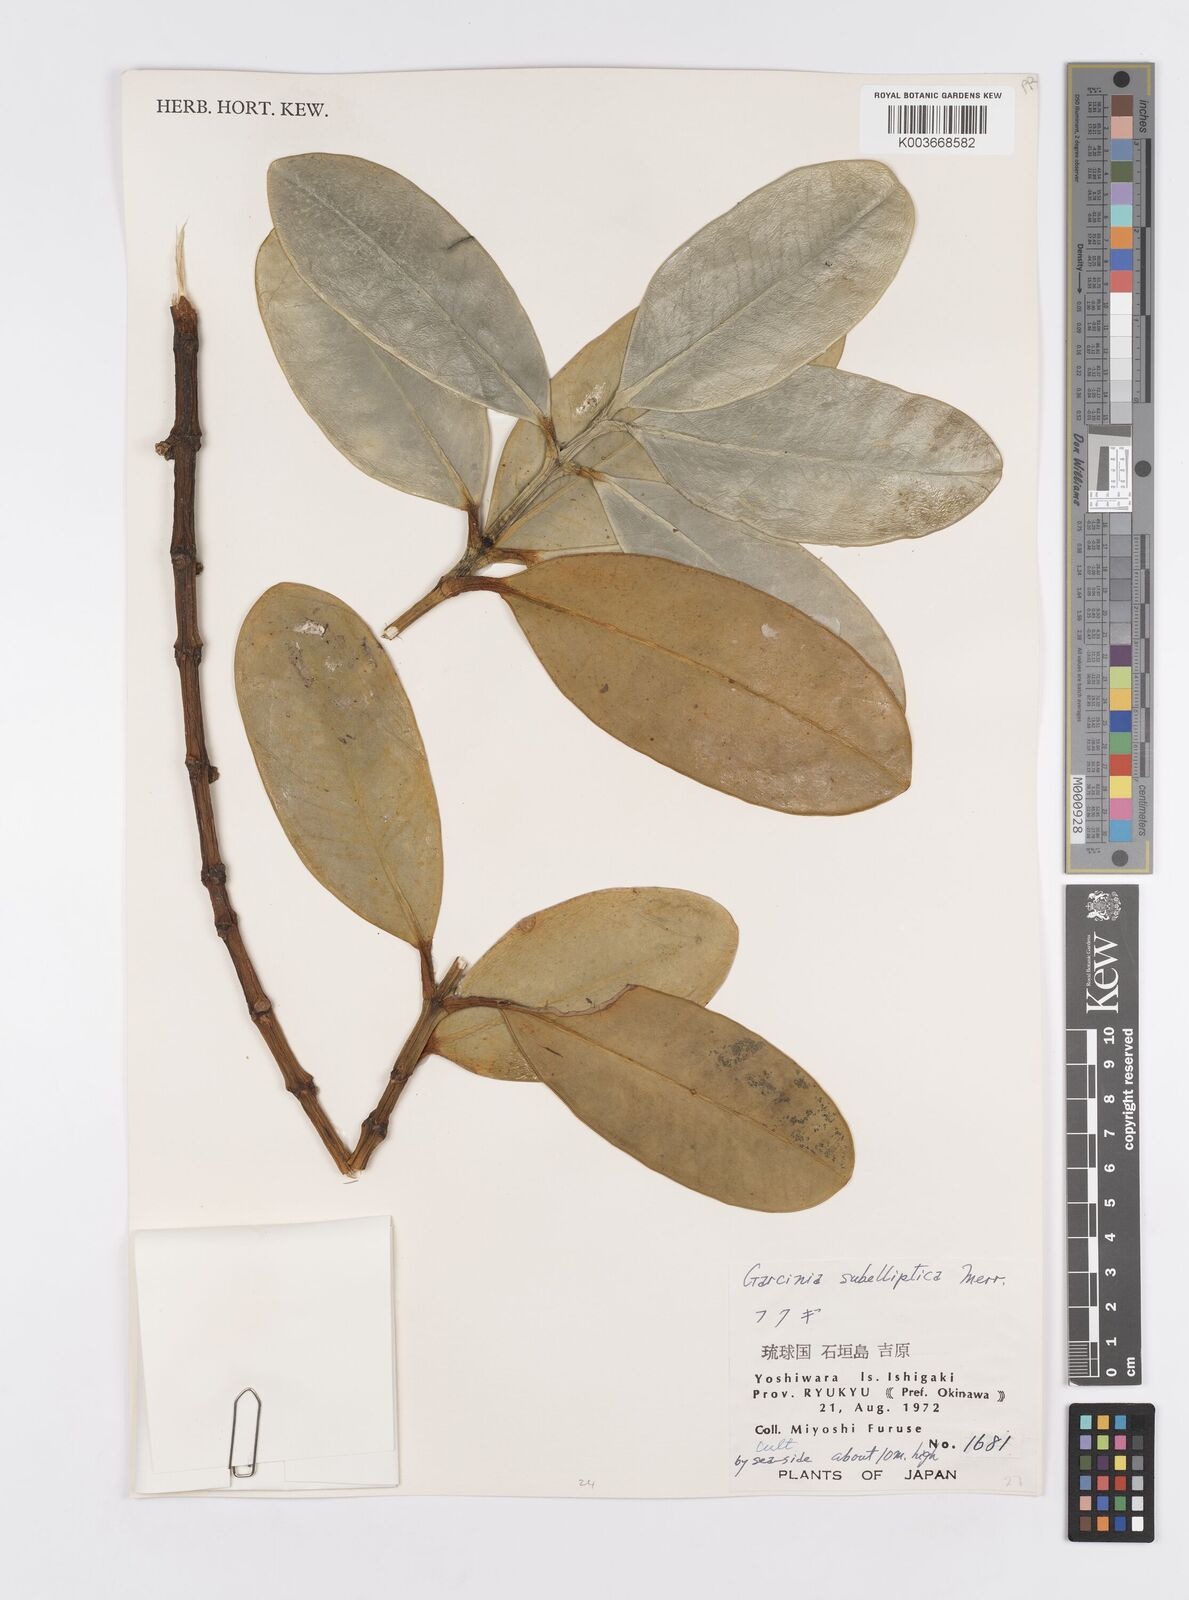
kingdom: Plantae
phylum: Tracheophyta
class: Magnoliopsida
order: Malpighiales
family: Clusiaceae
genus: Garcinia
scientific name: Garcinia subelliptica
